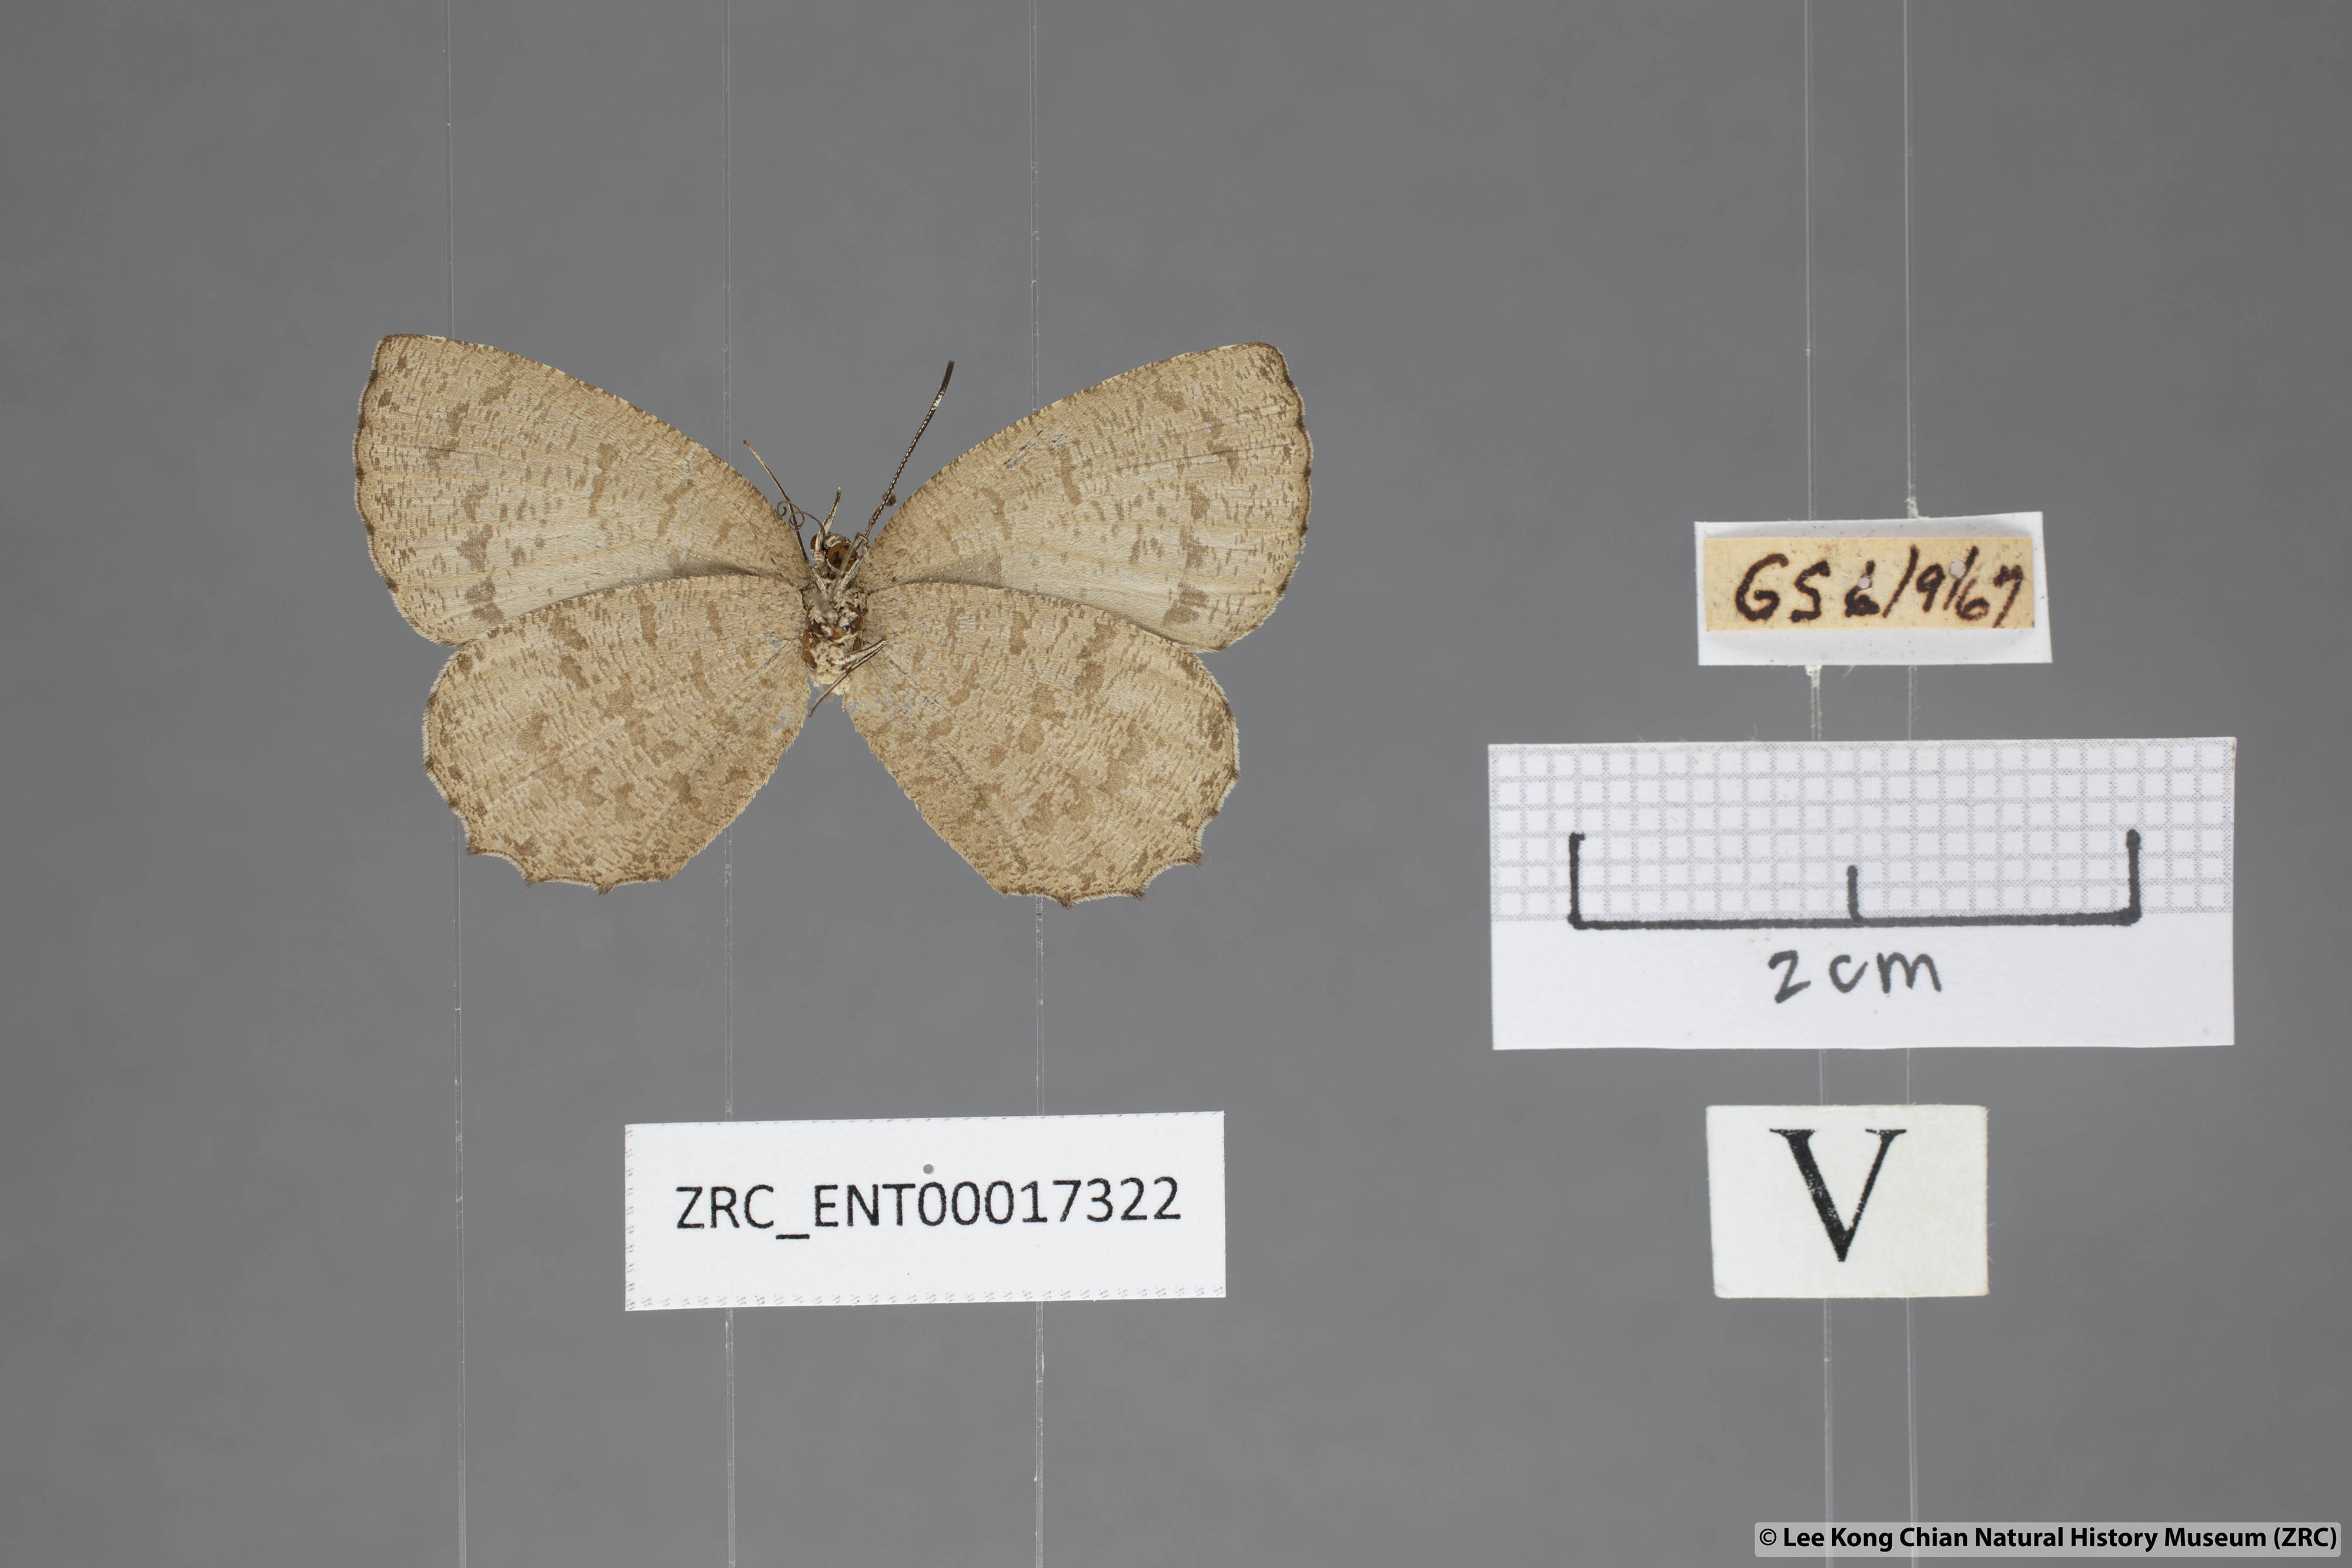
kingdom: Animalia
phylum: Arthropoda
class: Insecta
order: Lepidoptera
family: Lycaenidae
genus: Allotinus
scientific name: Allotinus subviolaceus
